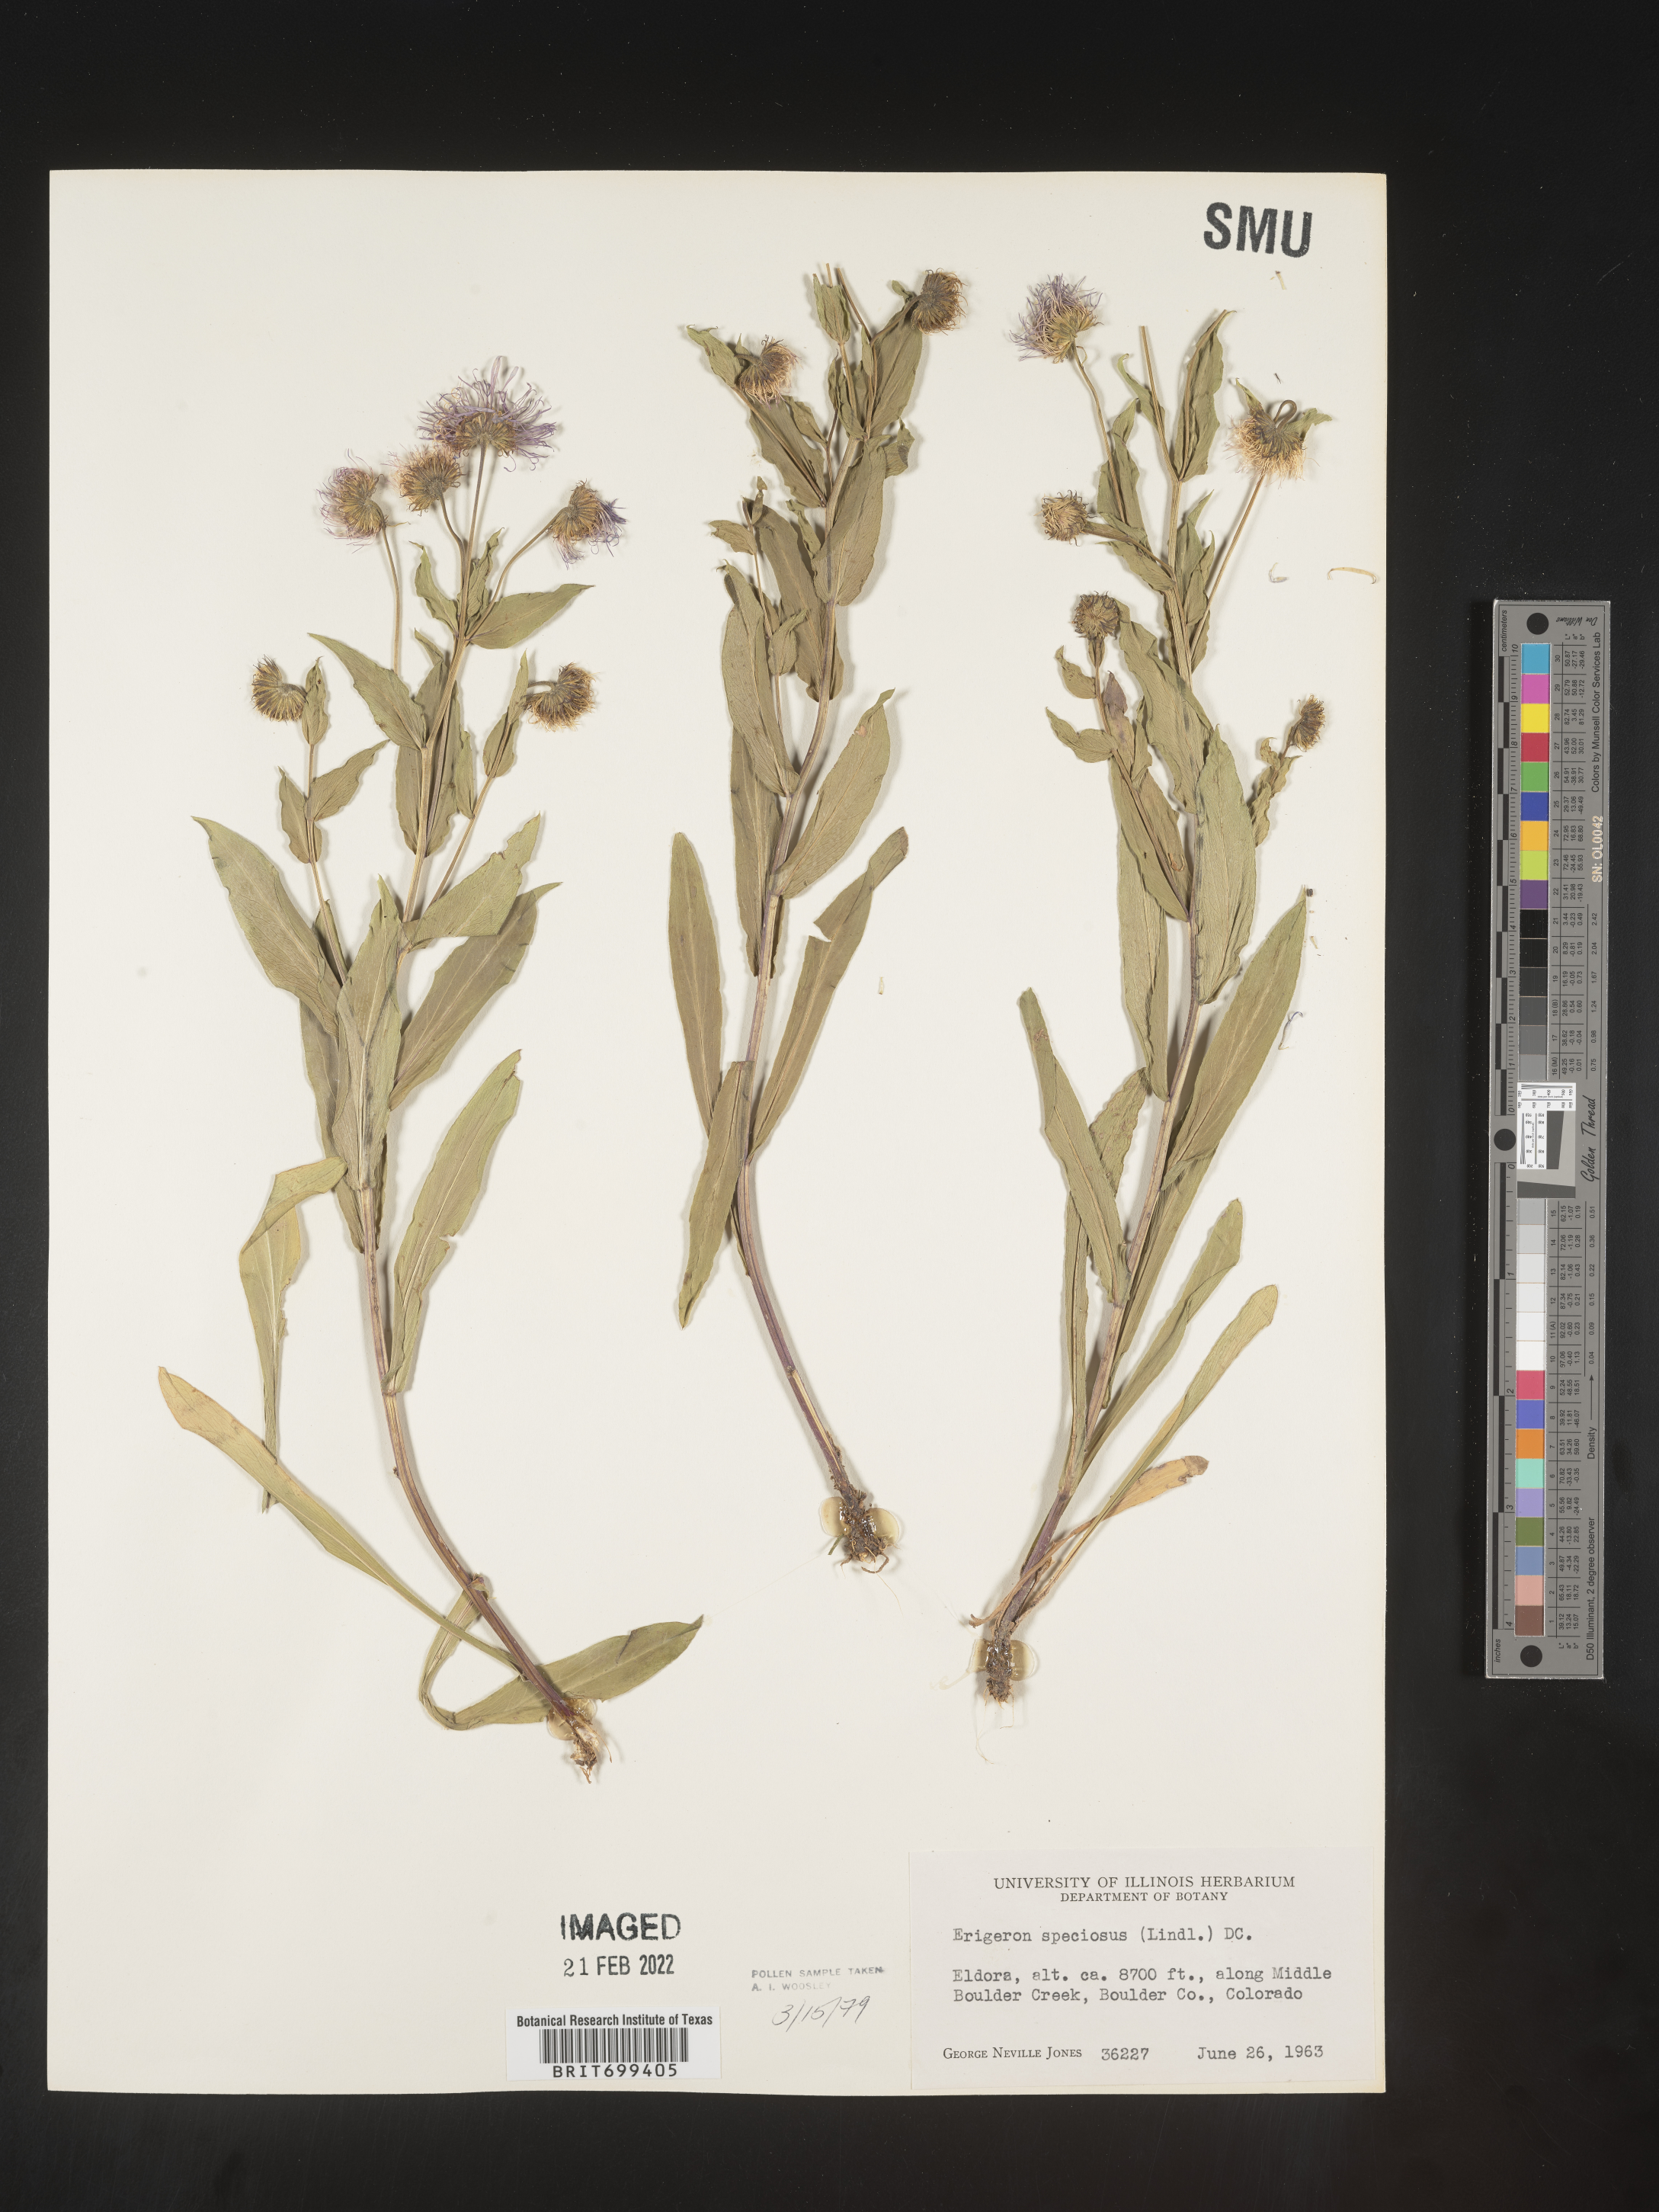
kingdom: Plantae
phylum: Tracheophyta
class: Magnoliopsida
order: Asterales
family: Asteraceae
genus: Erigeron
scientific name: Erigeron speciosus
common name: Aspen fleabane
